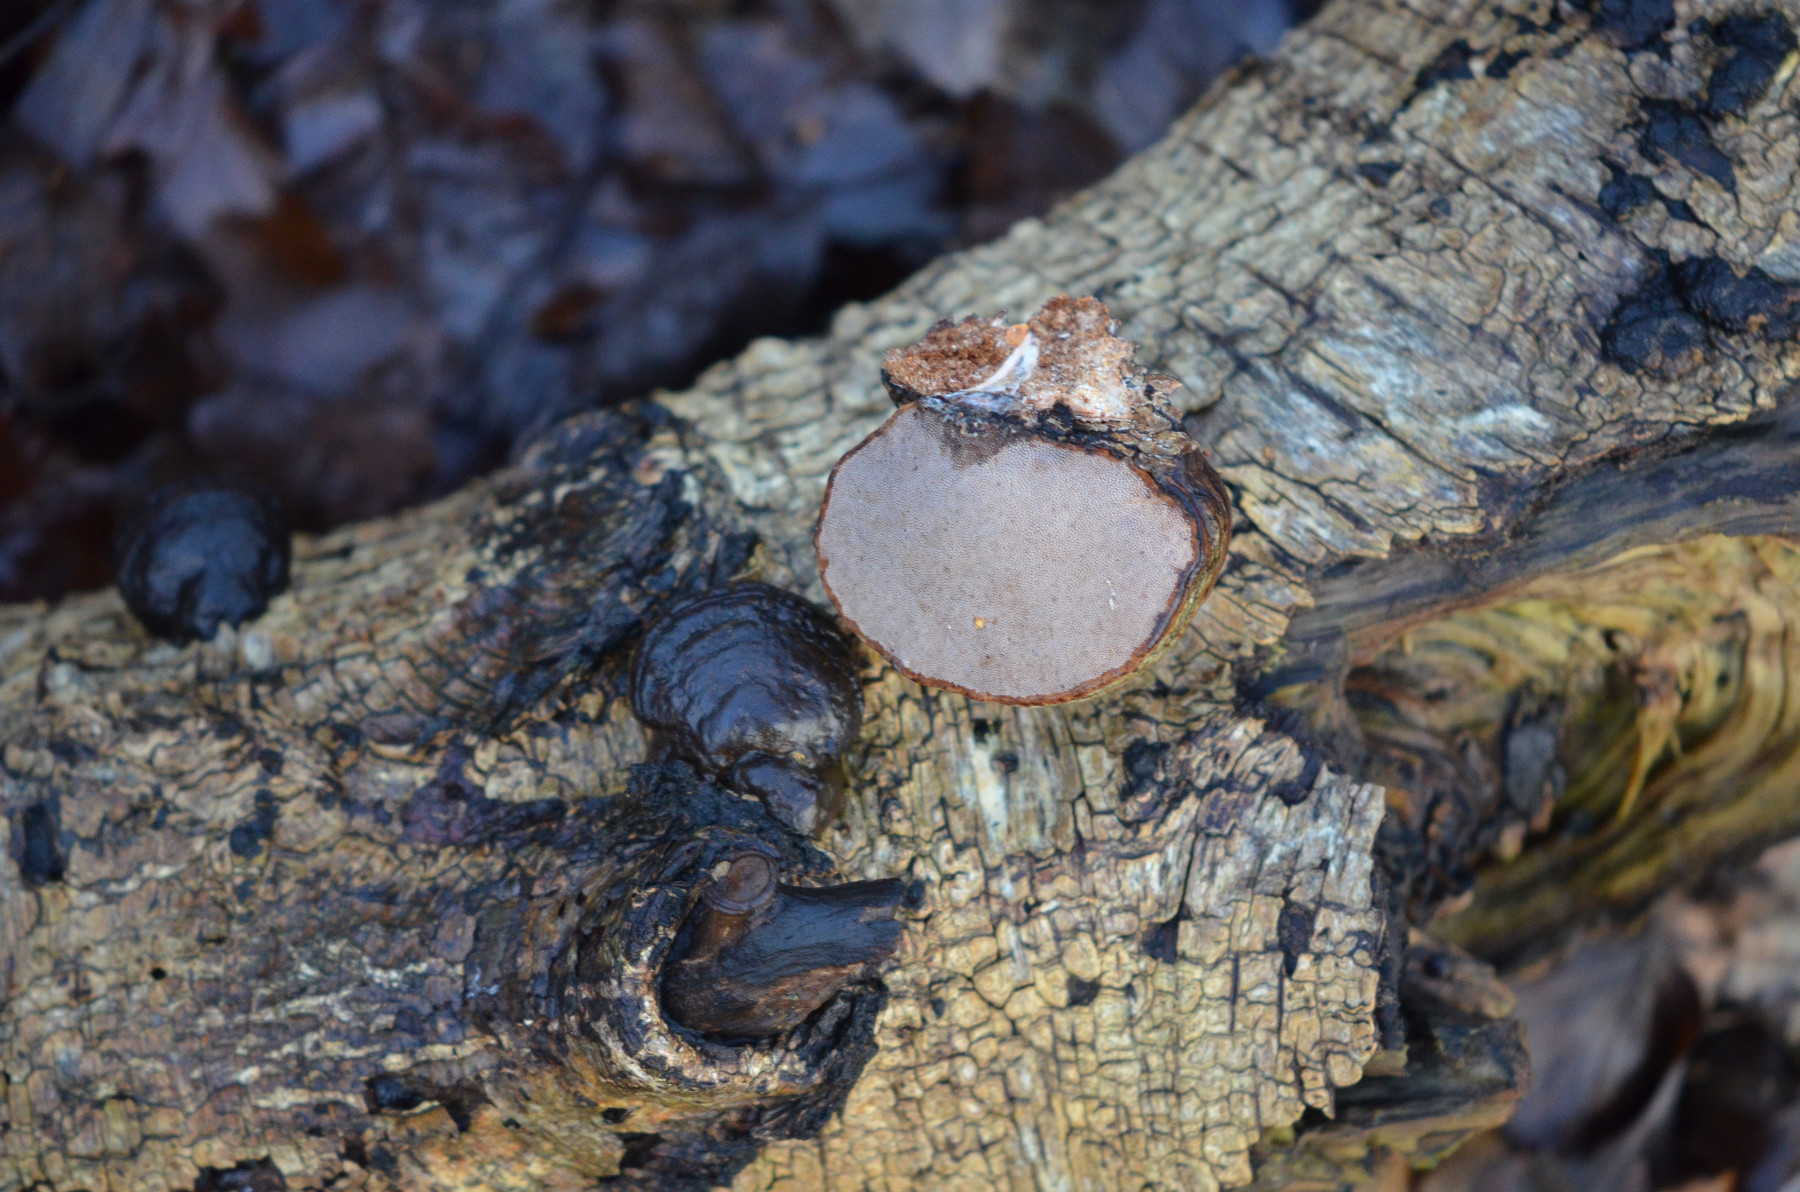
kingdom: Fungi
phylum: Basidiomycota
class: Agaricomycetes
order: Polyporales
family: Polyporaceae
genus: Fomes
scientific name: Fomes fomentarius
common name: tøndersvamp
